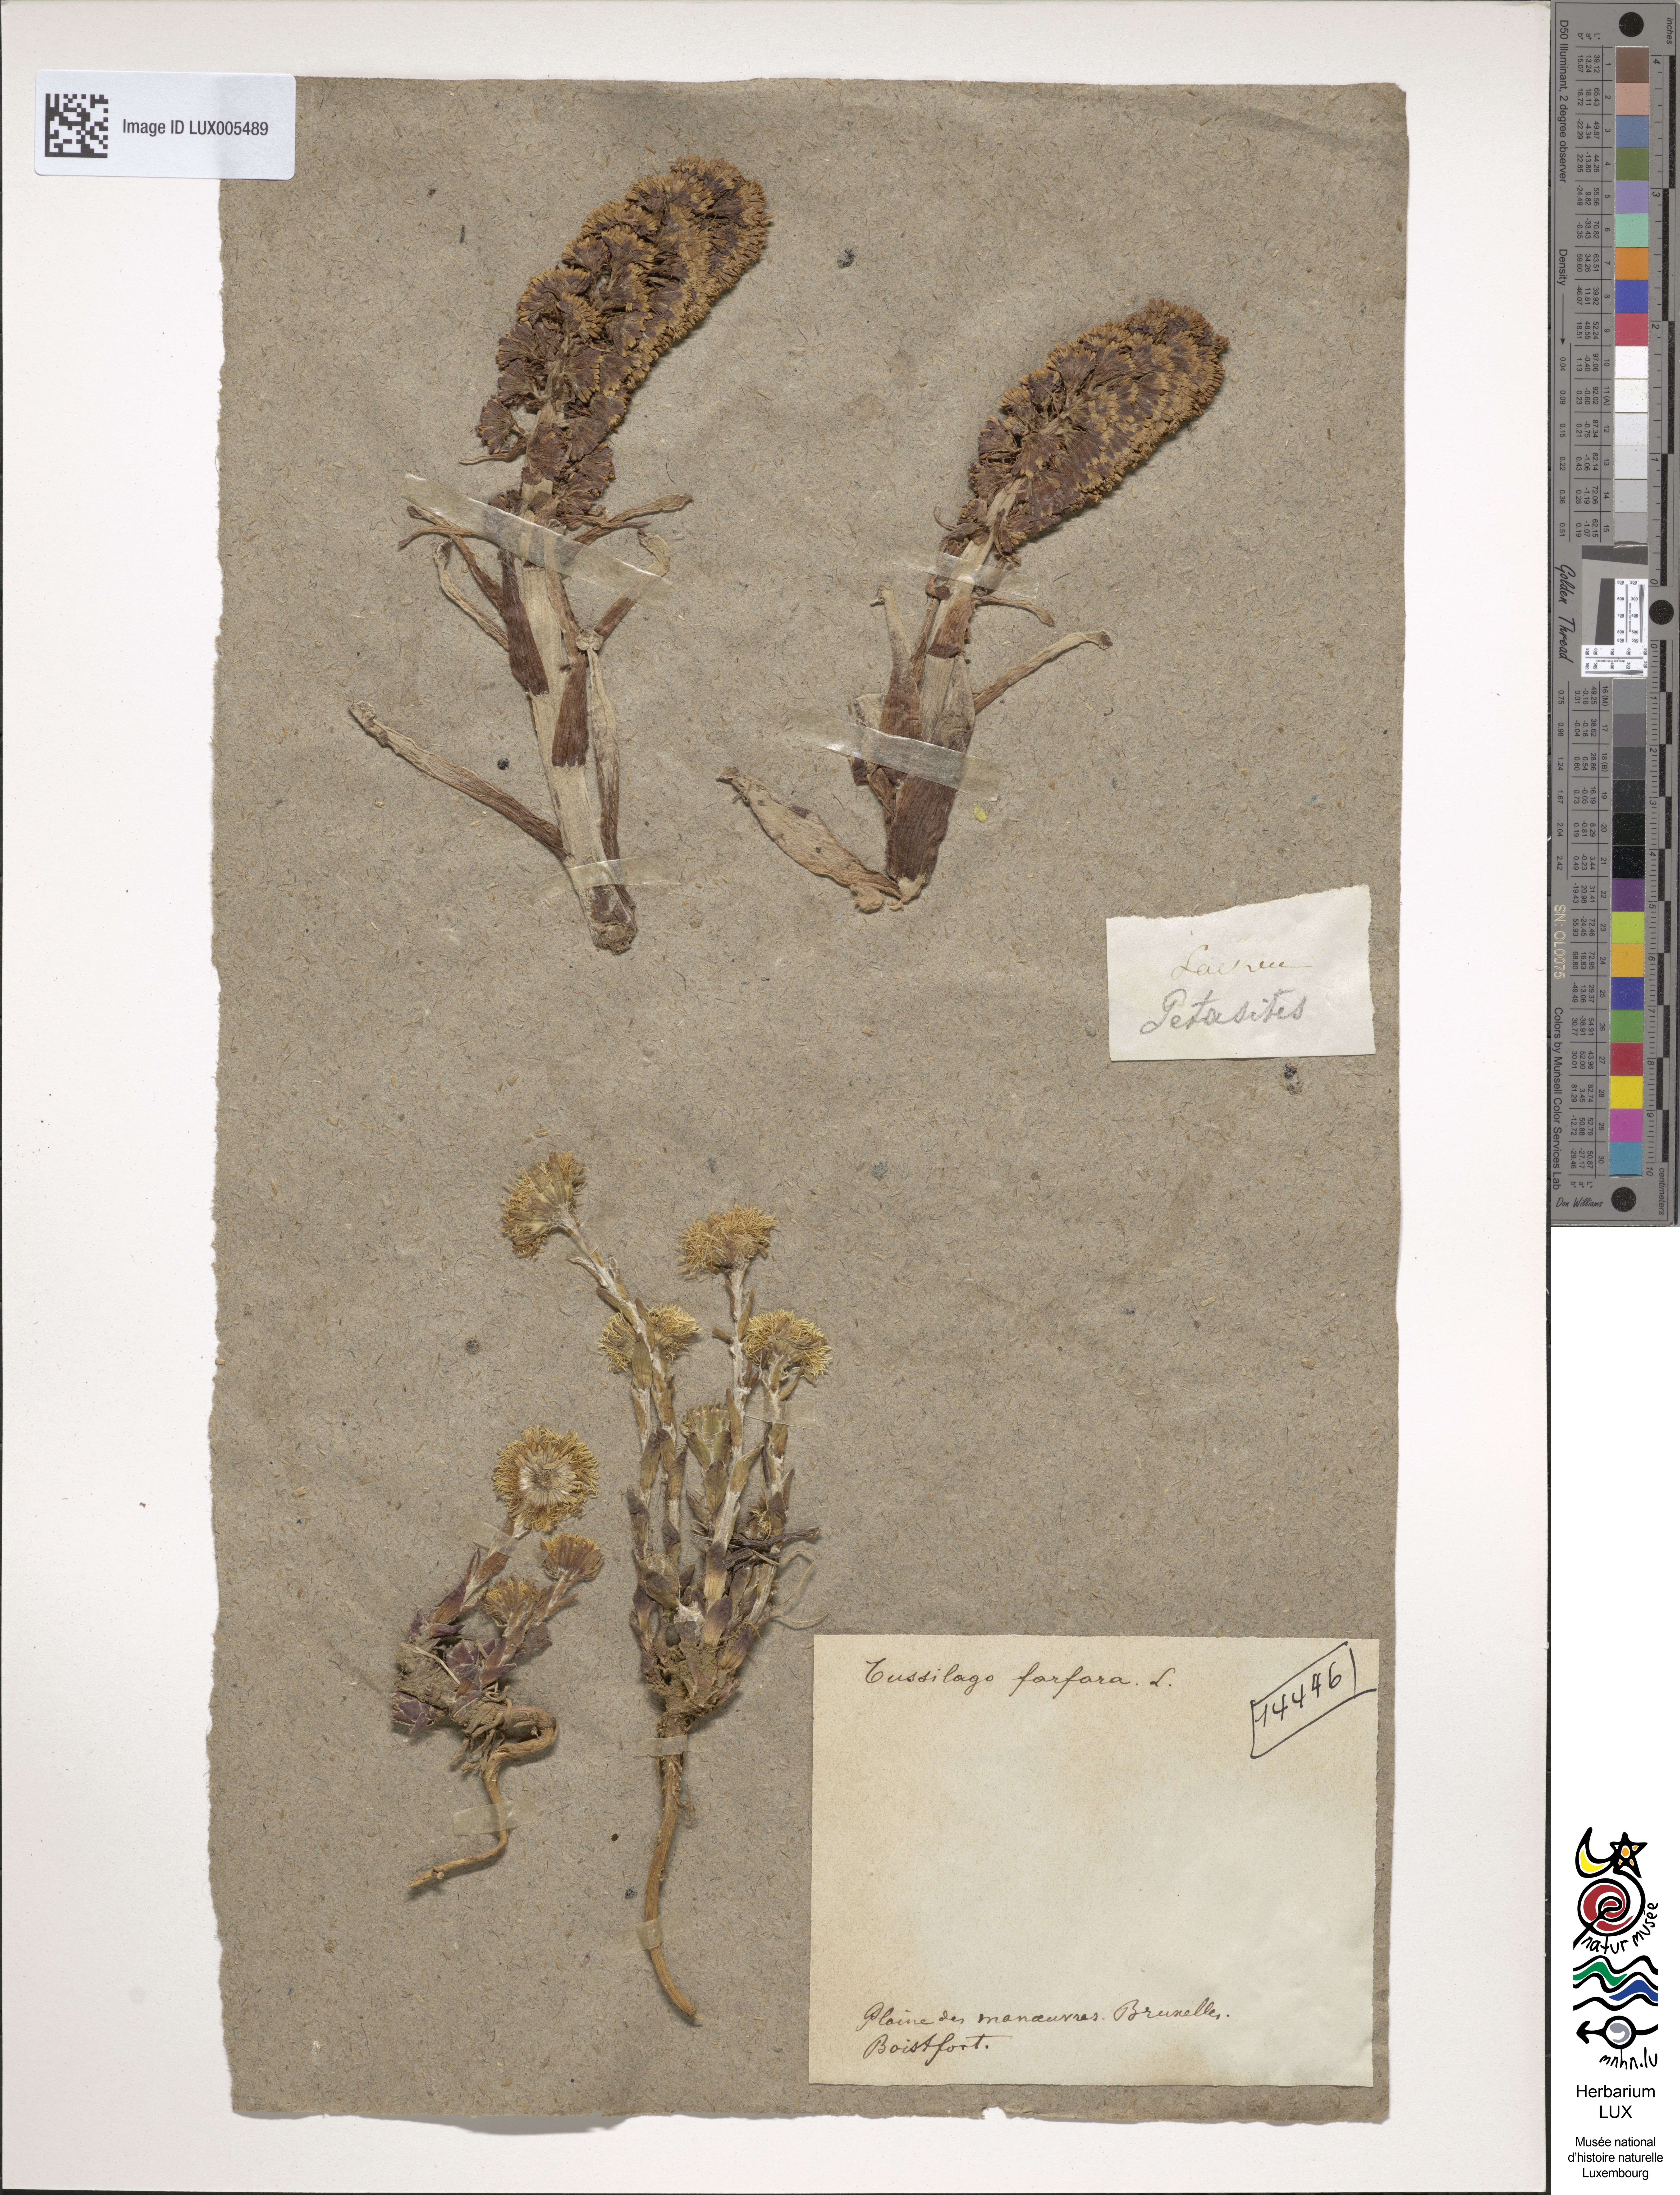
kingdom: Plantae
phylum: Tracheophyta
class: Magnoliopsida
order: Asterales
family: Asteraceae
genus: Tussilago
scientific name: Tussilago farfara
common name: Coltsfoot
